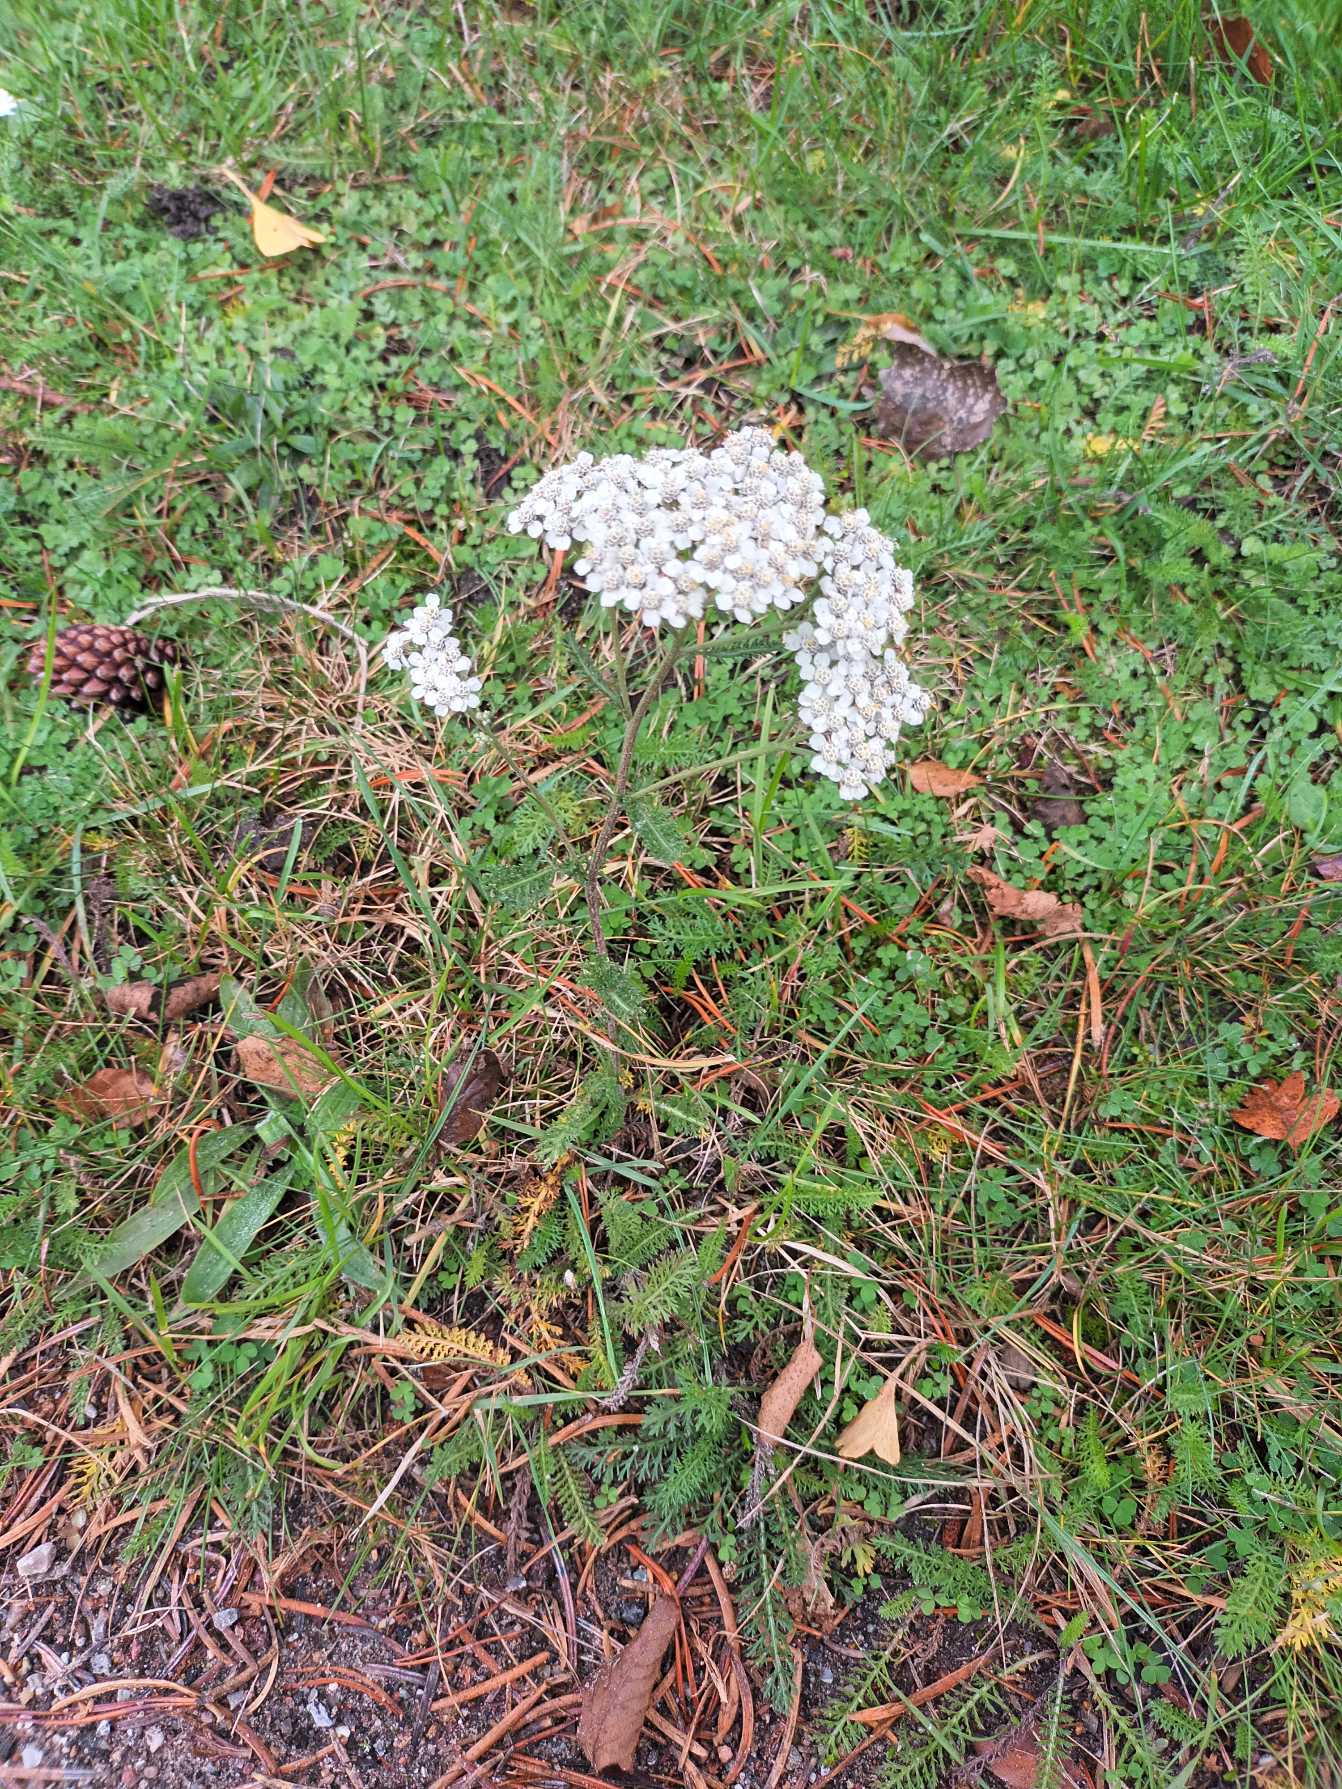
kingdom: Plantae
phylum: Tracheophyta
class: Magnoliopsida
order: Asterales
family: Asteraceae
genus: Achillea
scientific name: Achillea millefolium
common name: Almindelig røllike
